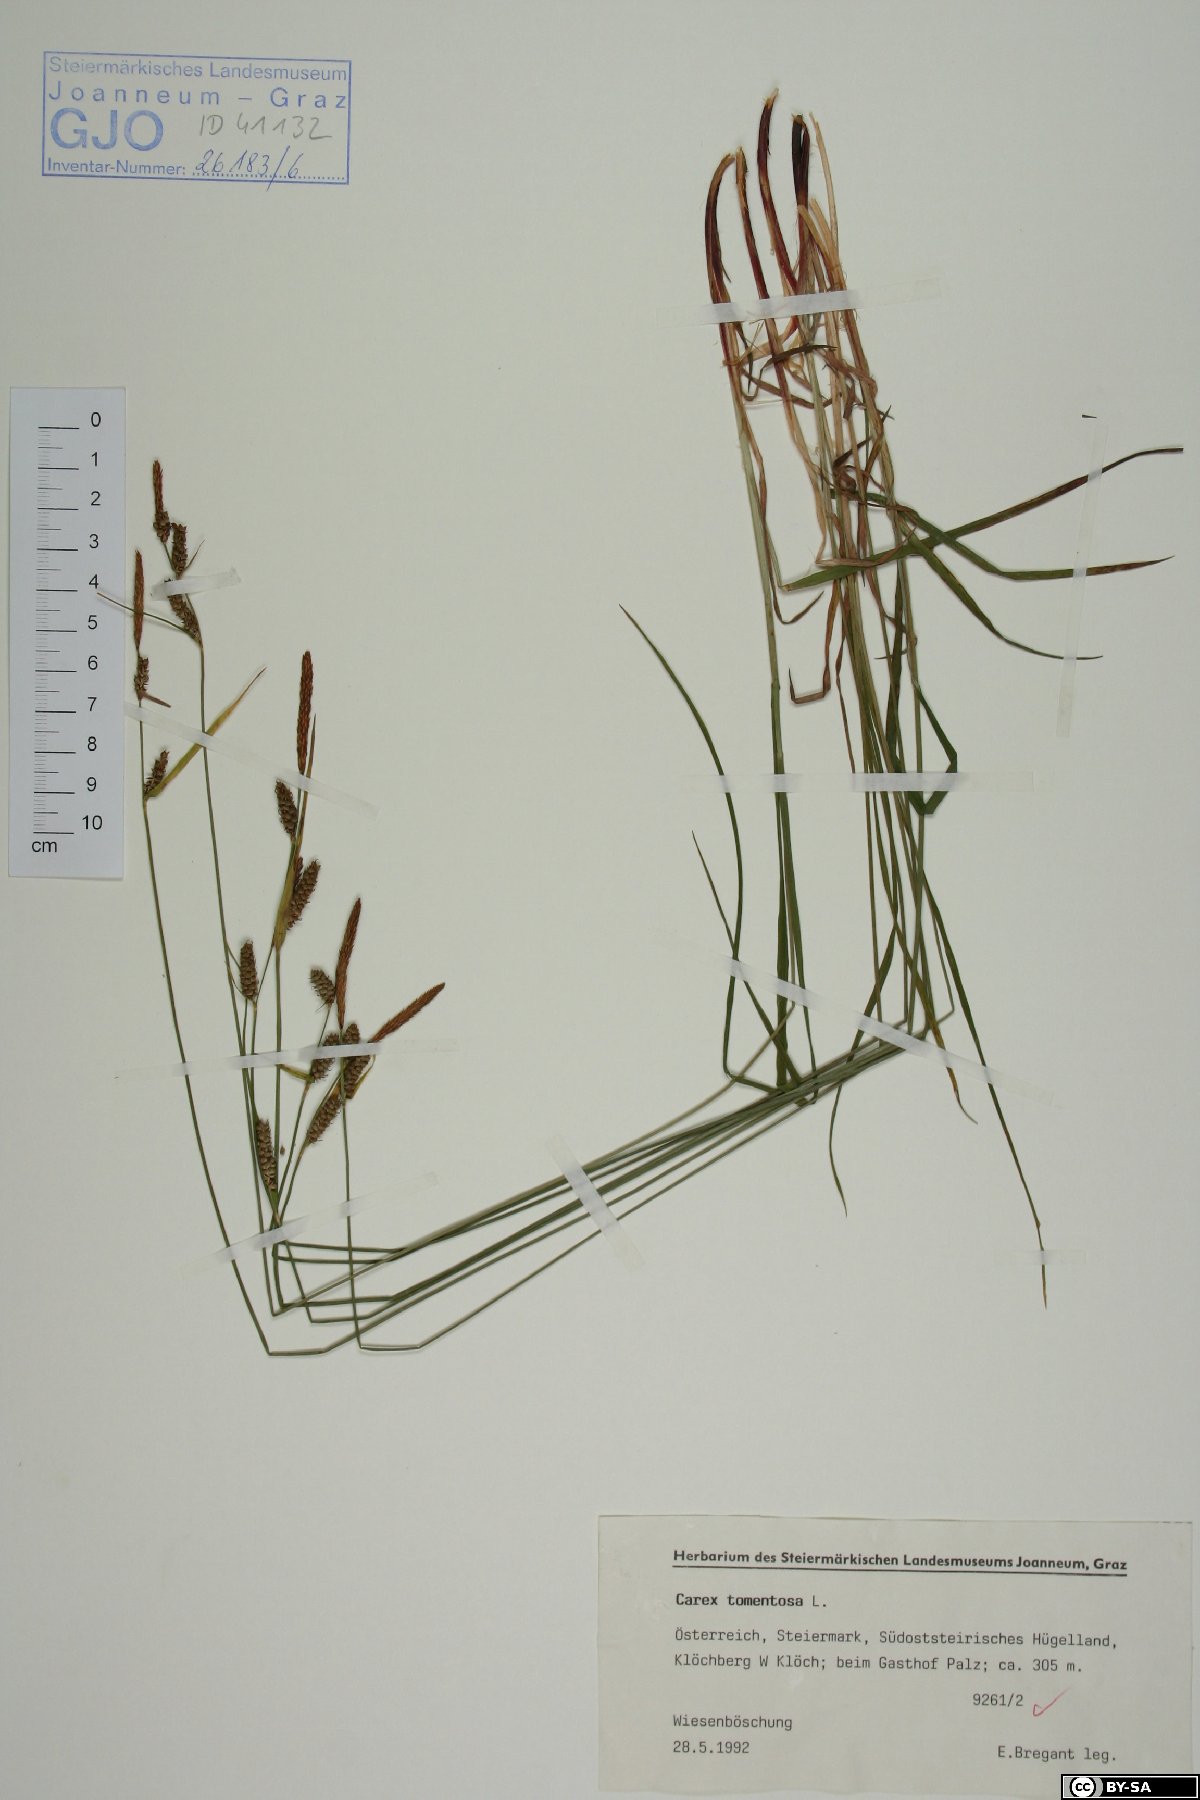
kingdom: Plantae
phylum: Tracheophyta
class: Liliopsida
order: Poales
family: Cyperaceae
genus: Carex
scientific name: Carex tomentosa
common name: Downy-fruited sedge
